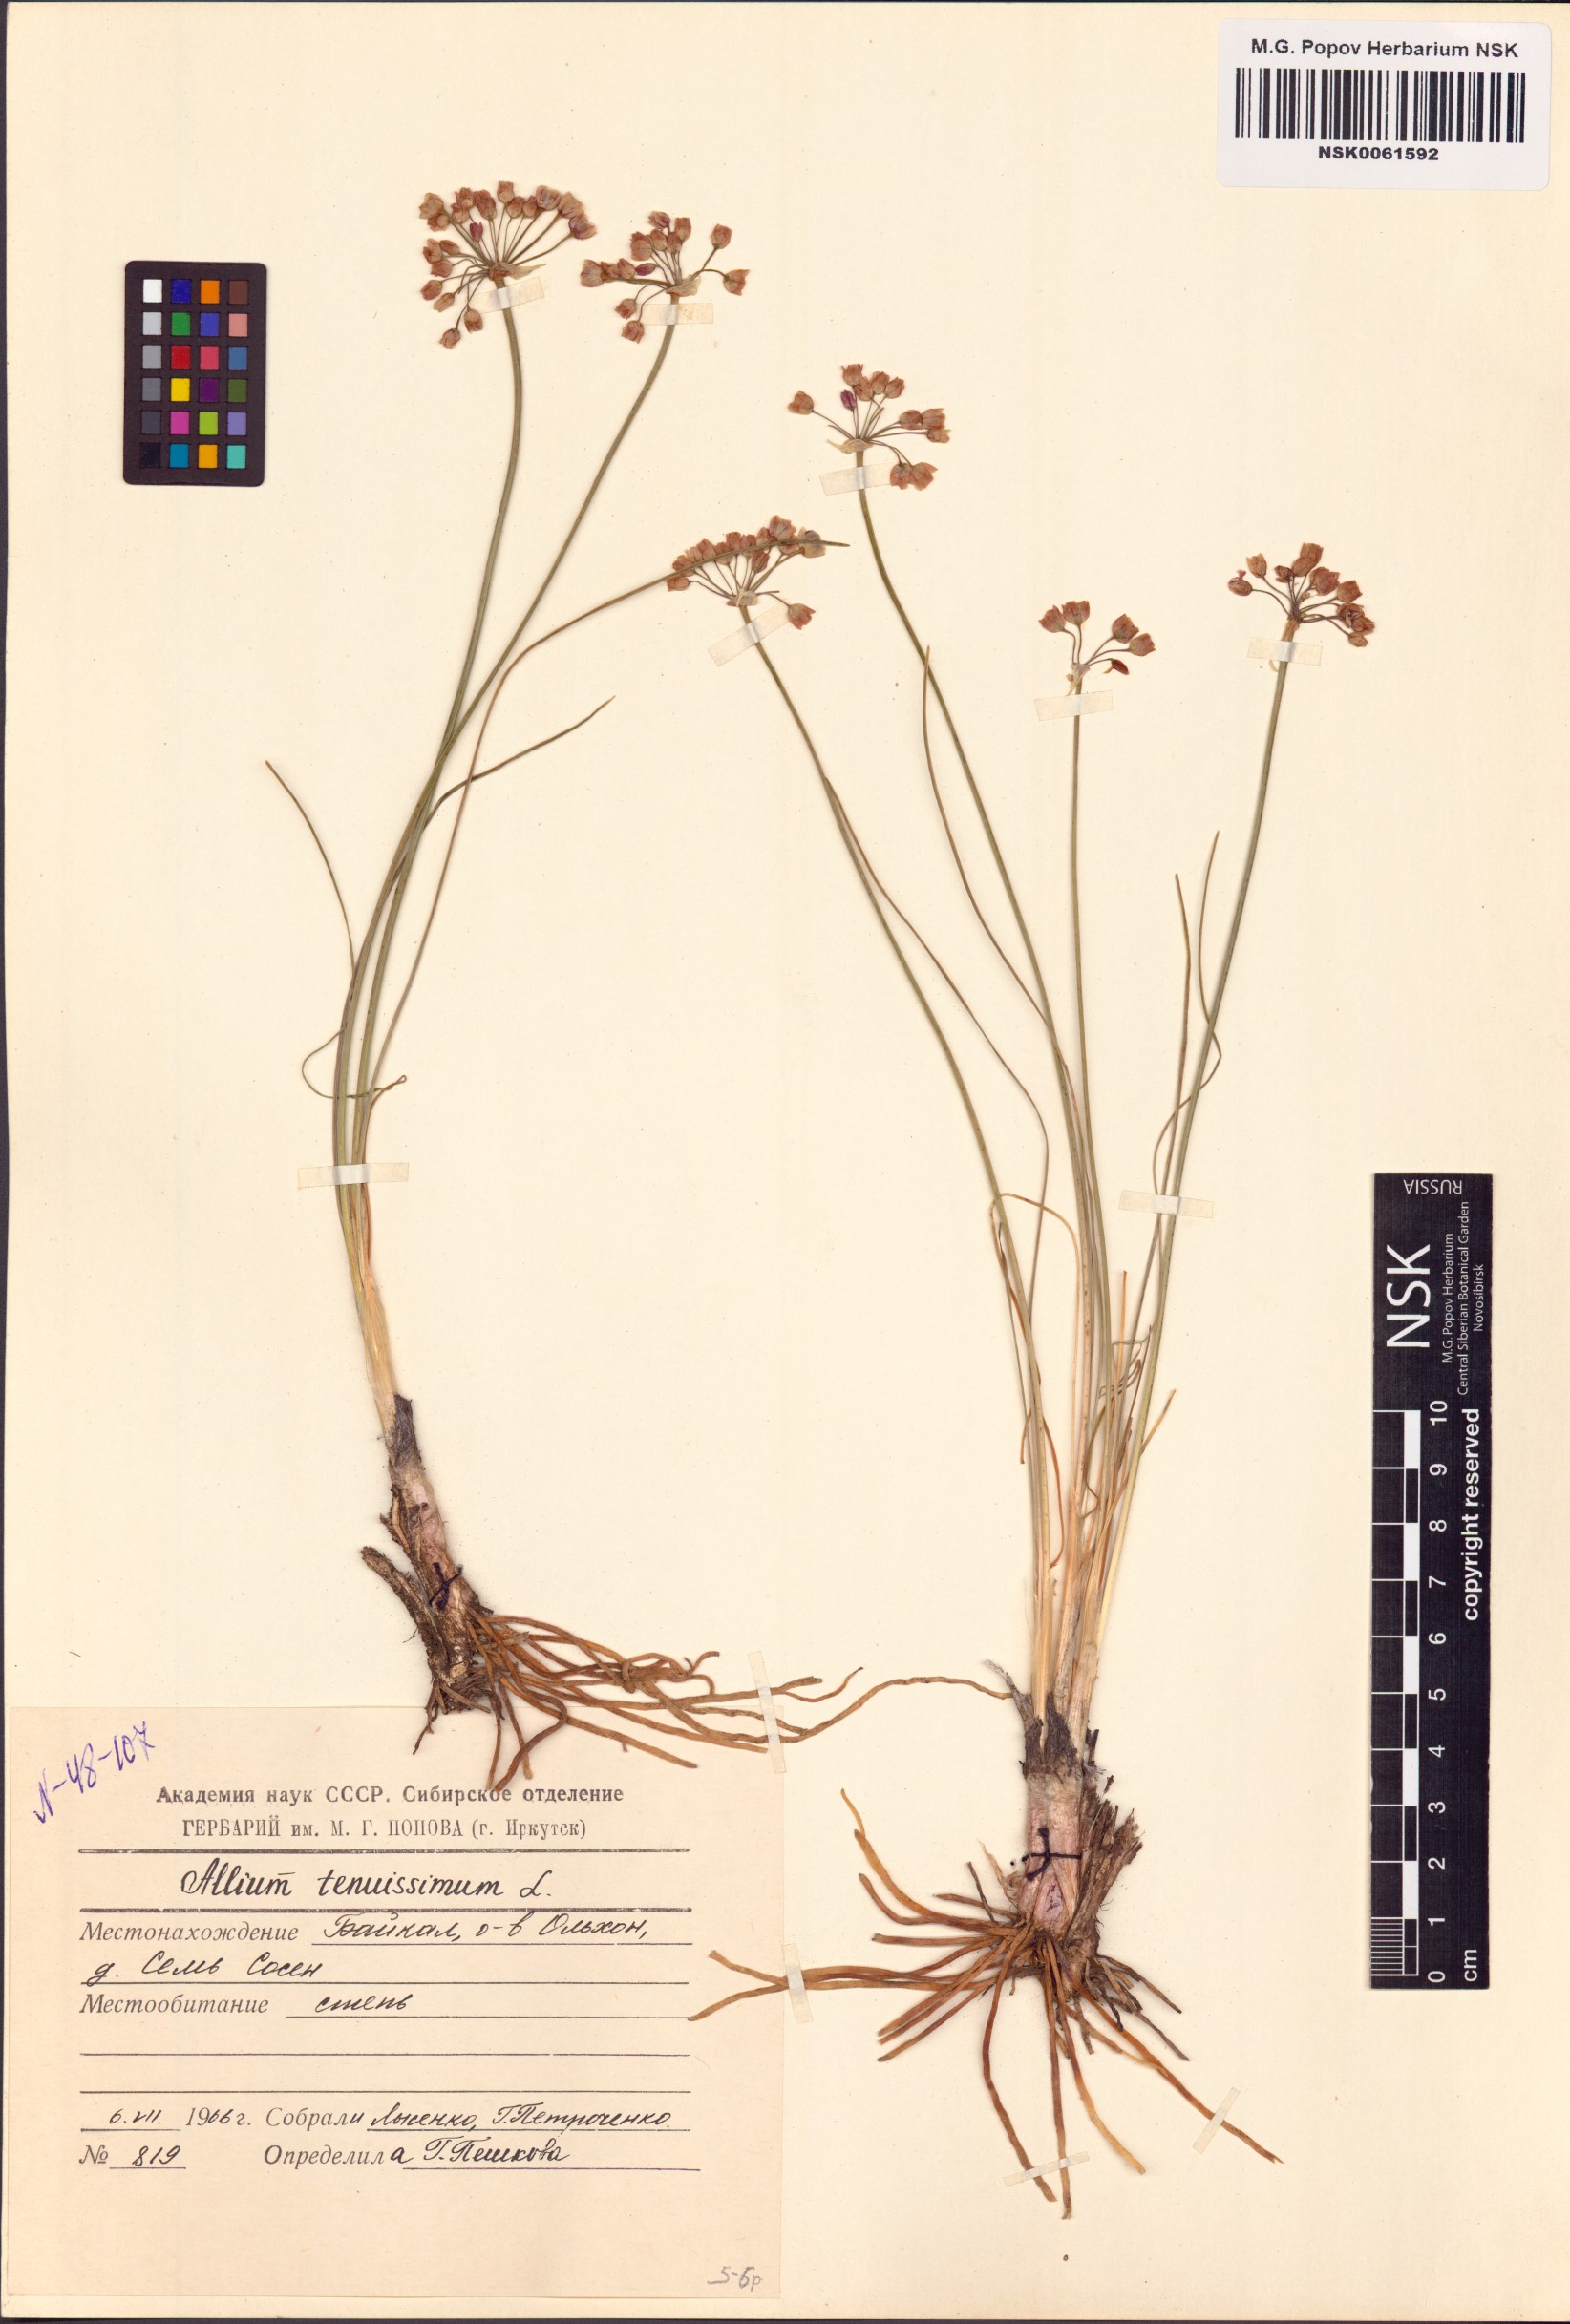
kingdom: Plantae
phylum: Tracheophyta
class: Liliopsida
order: Asparagales
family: Amaryllidaceae
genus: Allium
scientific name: Allium tenuissimum
